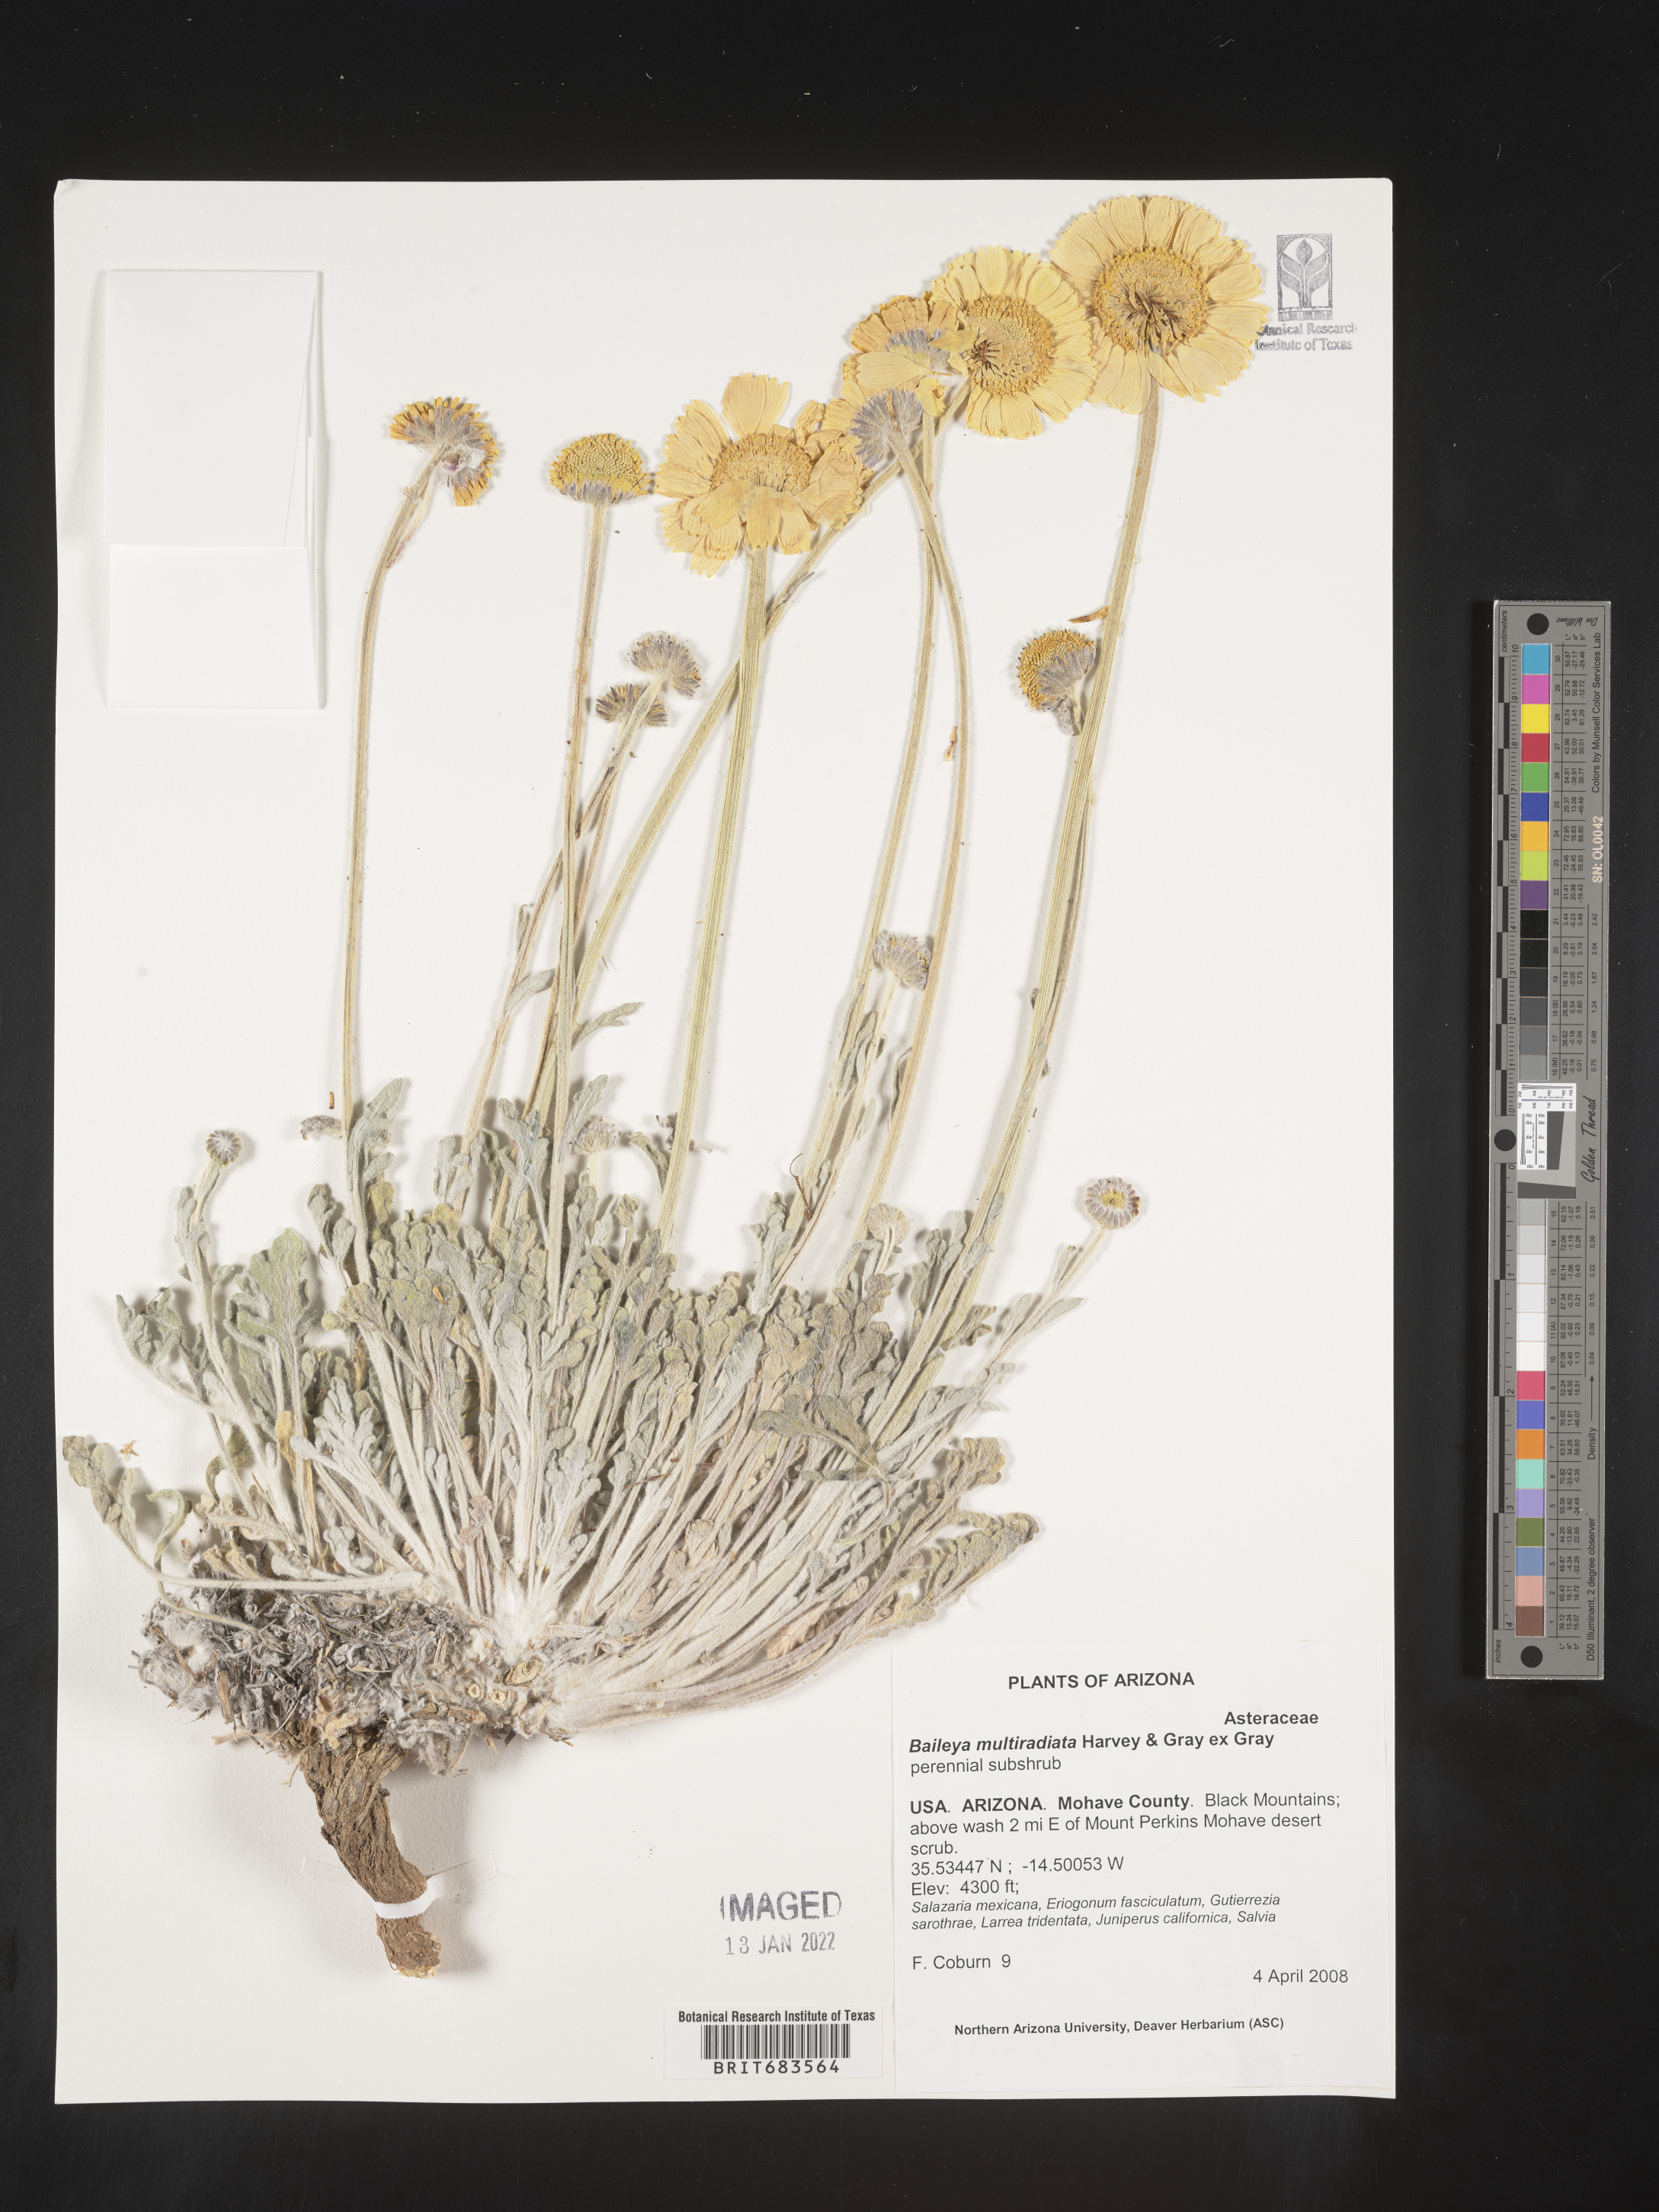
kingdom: Plantae
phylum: Tracheophyta
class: Magnoliopsida
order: Asterales
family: Asteraceae
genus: Baileya
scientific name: Baileya multiradiata
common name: Desert-marigold
